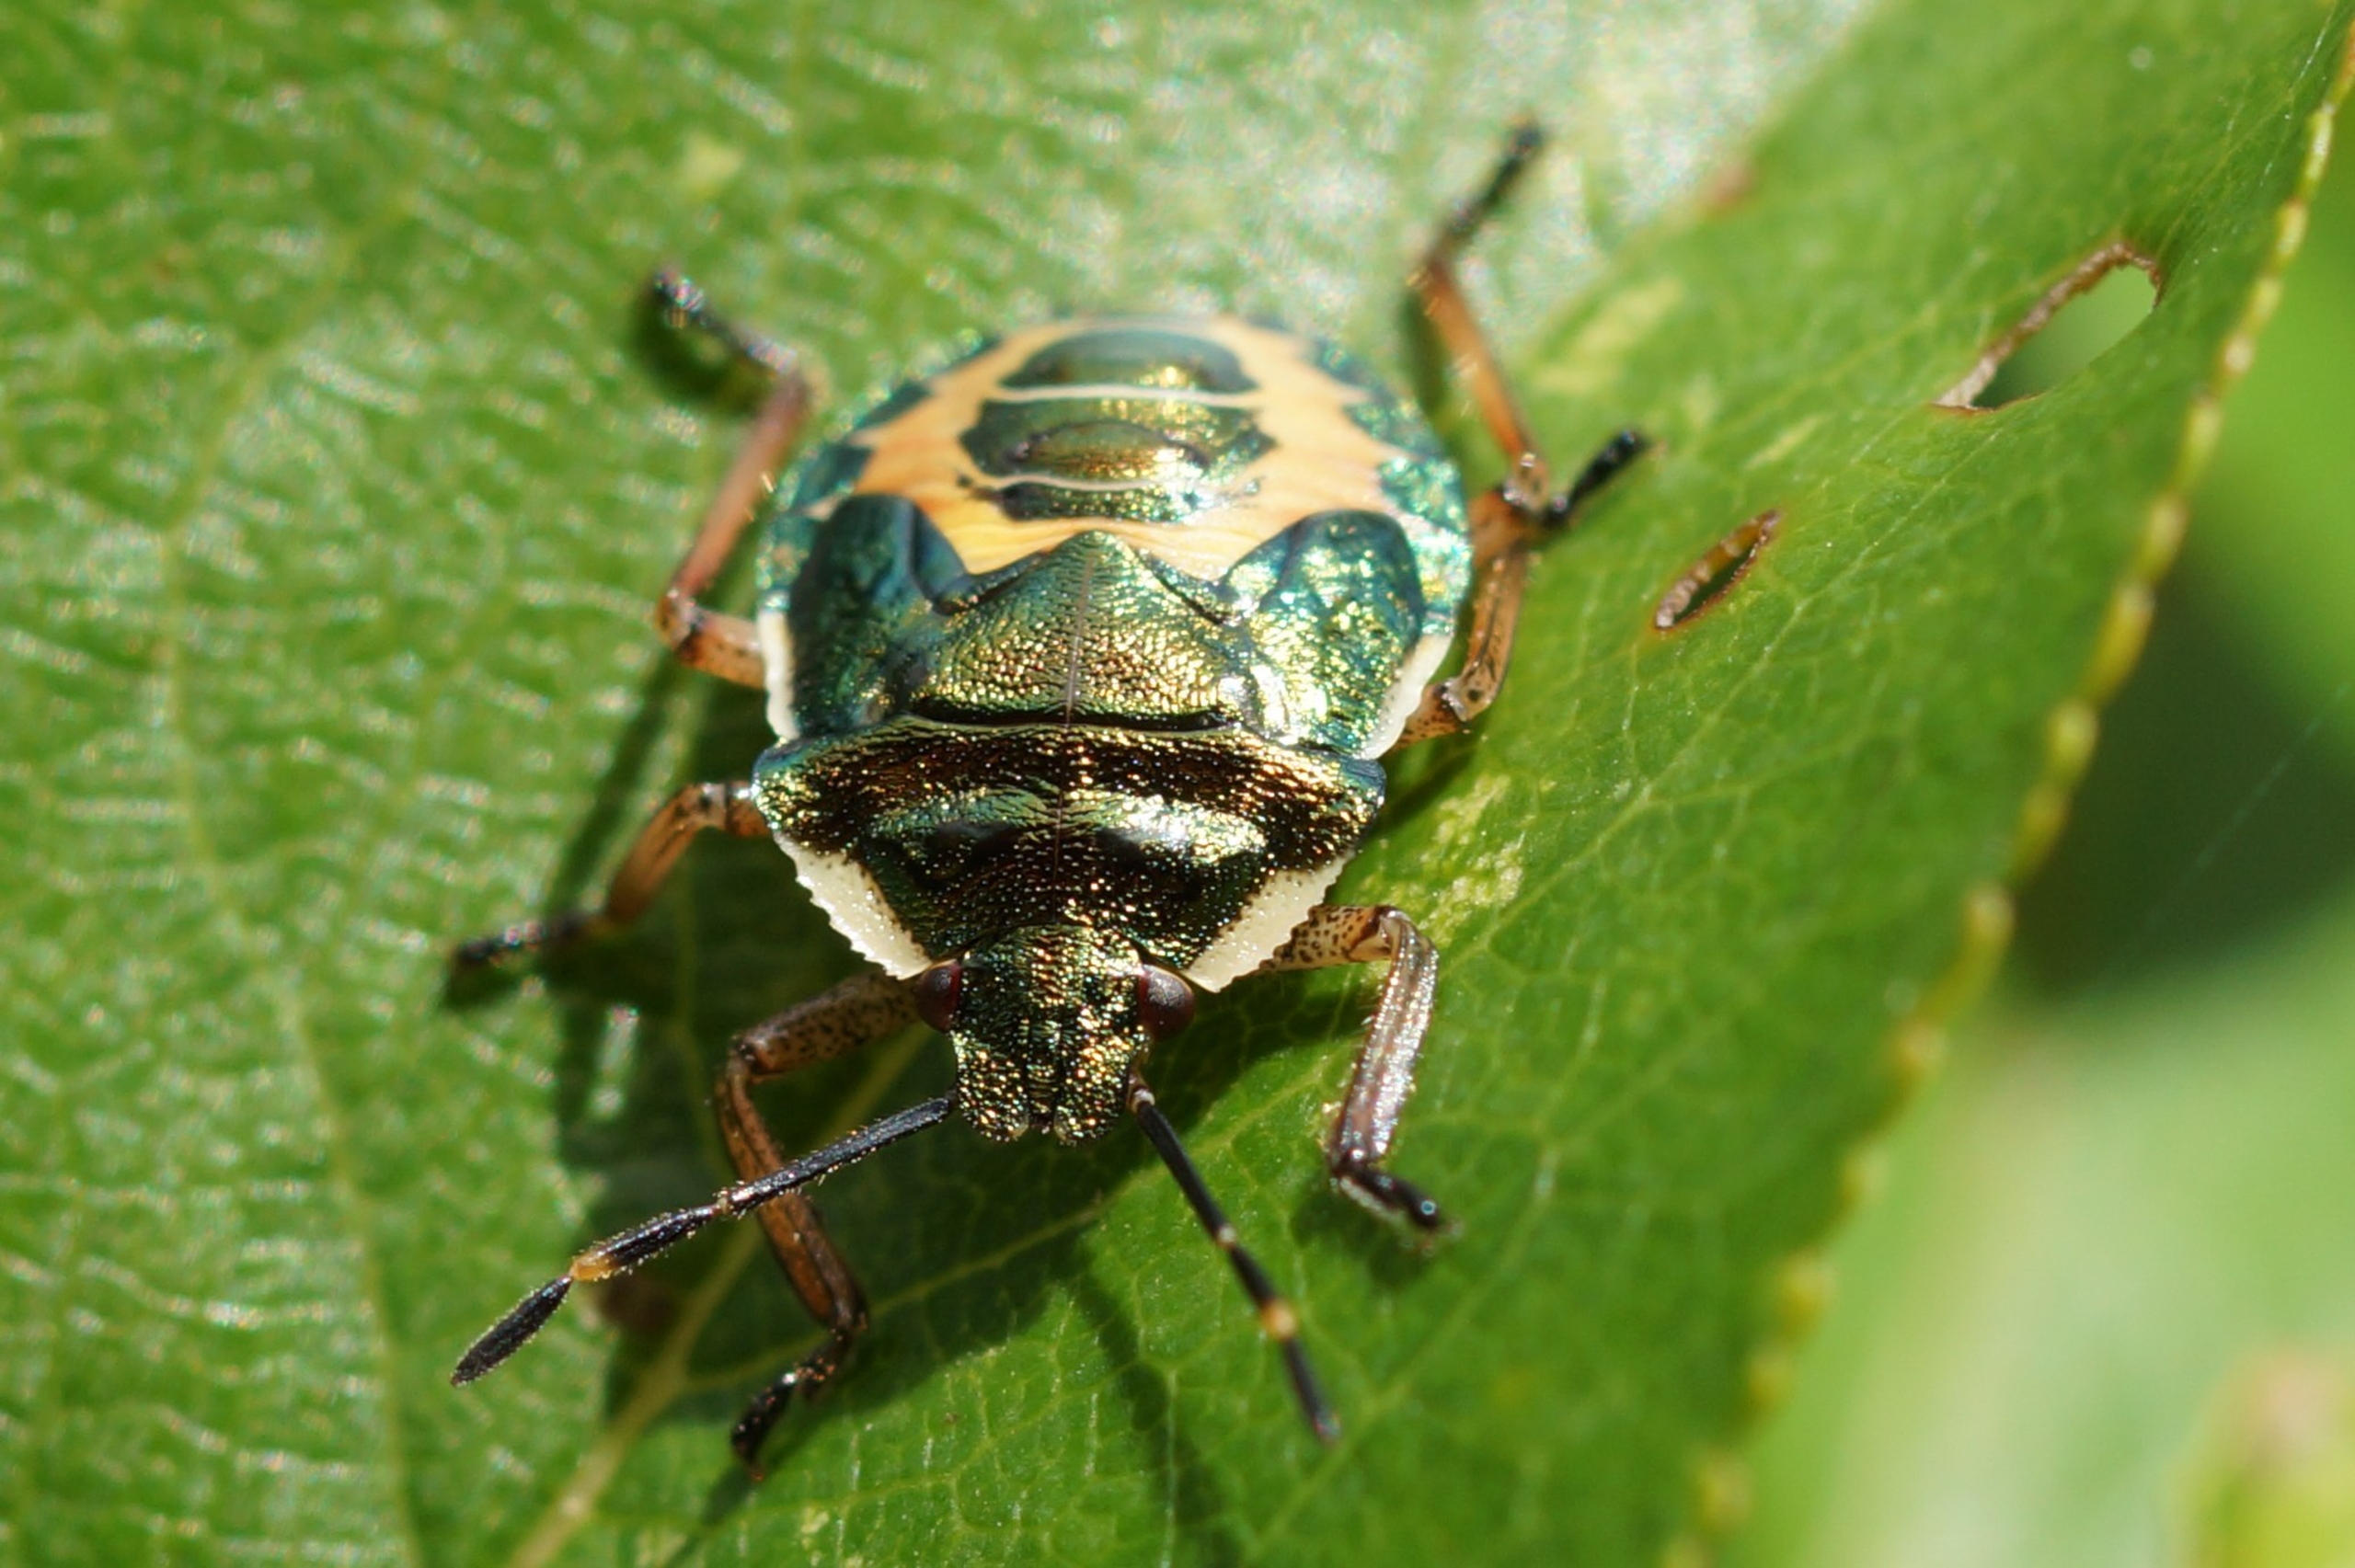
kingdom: Animalia
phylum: Arthropoda
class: Insecta
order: Hemiptera
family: Pentatomidae
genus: Troilus
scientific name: Troilus luridus
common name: Skovbredtæge
